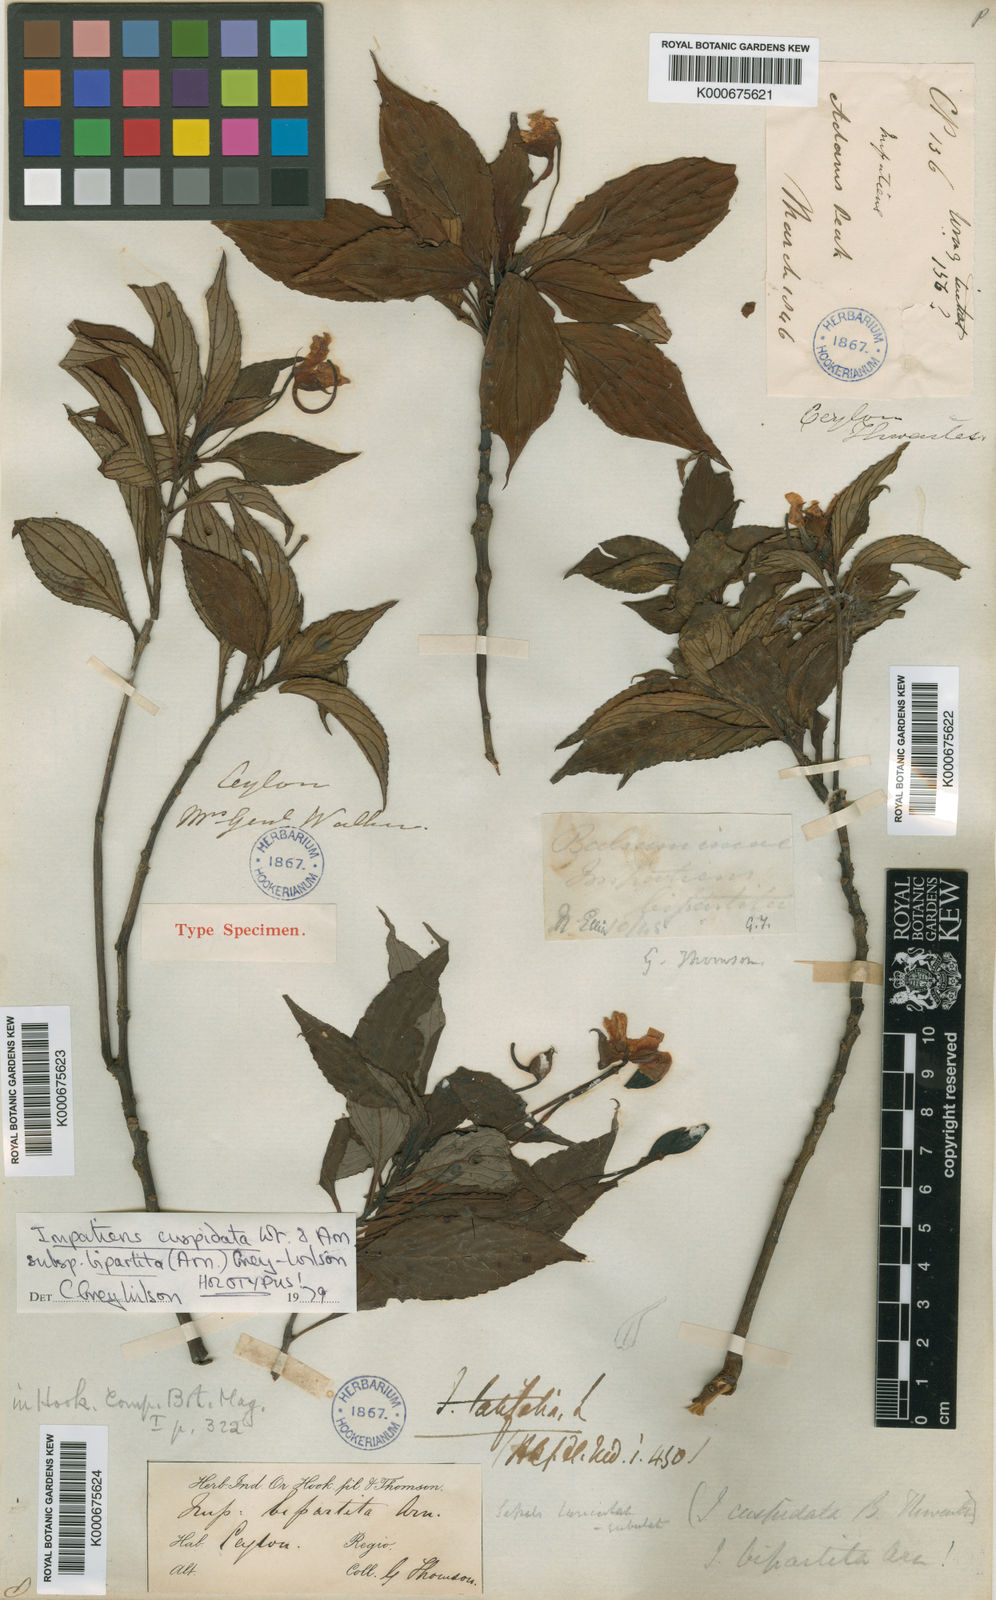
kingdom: Plantae
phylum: Tracheophyta
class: Magnoliopsida
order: Ericales
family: Balsaminaceae
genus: Impatiens
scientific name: Impatiens cuspidata
